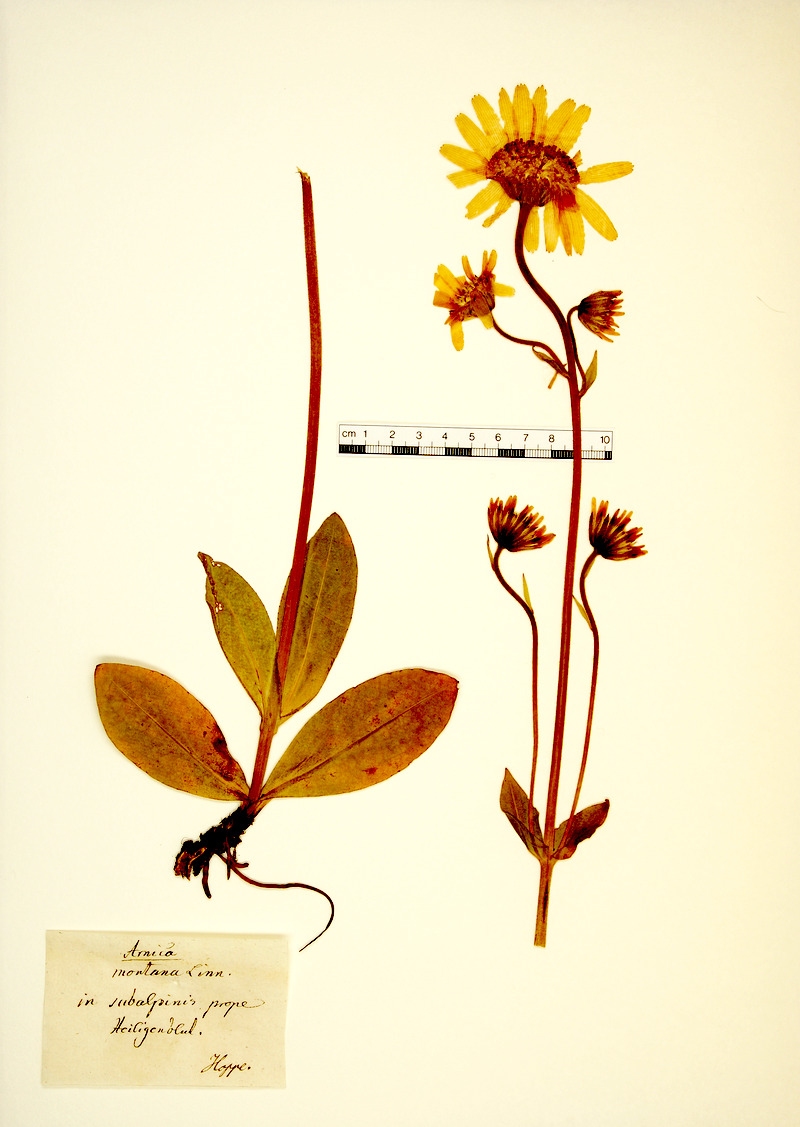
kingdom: Plantae
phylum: Tracheophyta
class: Magnoliopsida
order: Asterales
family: Asteraceae
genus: Arnica
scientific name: Arnica montana
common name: Leopard's bane
